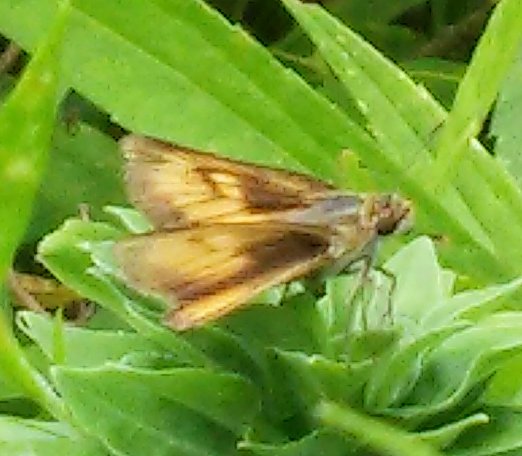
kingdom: Animalia
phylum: Arthropoda
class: Insecta
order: Lepidoptera
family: Hesperiidae
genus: Atrytone
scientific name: Atrytone delaware
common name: Delaware Skipper
